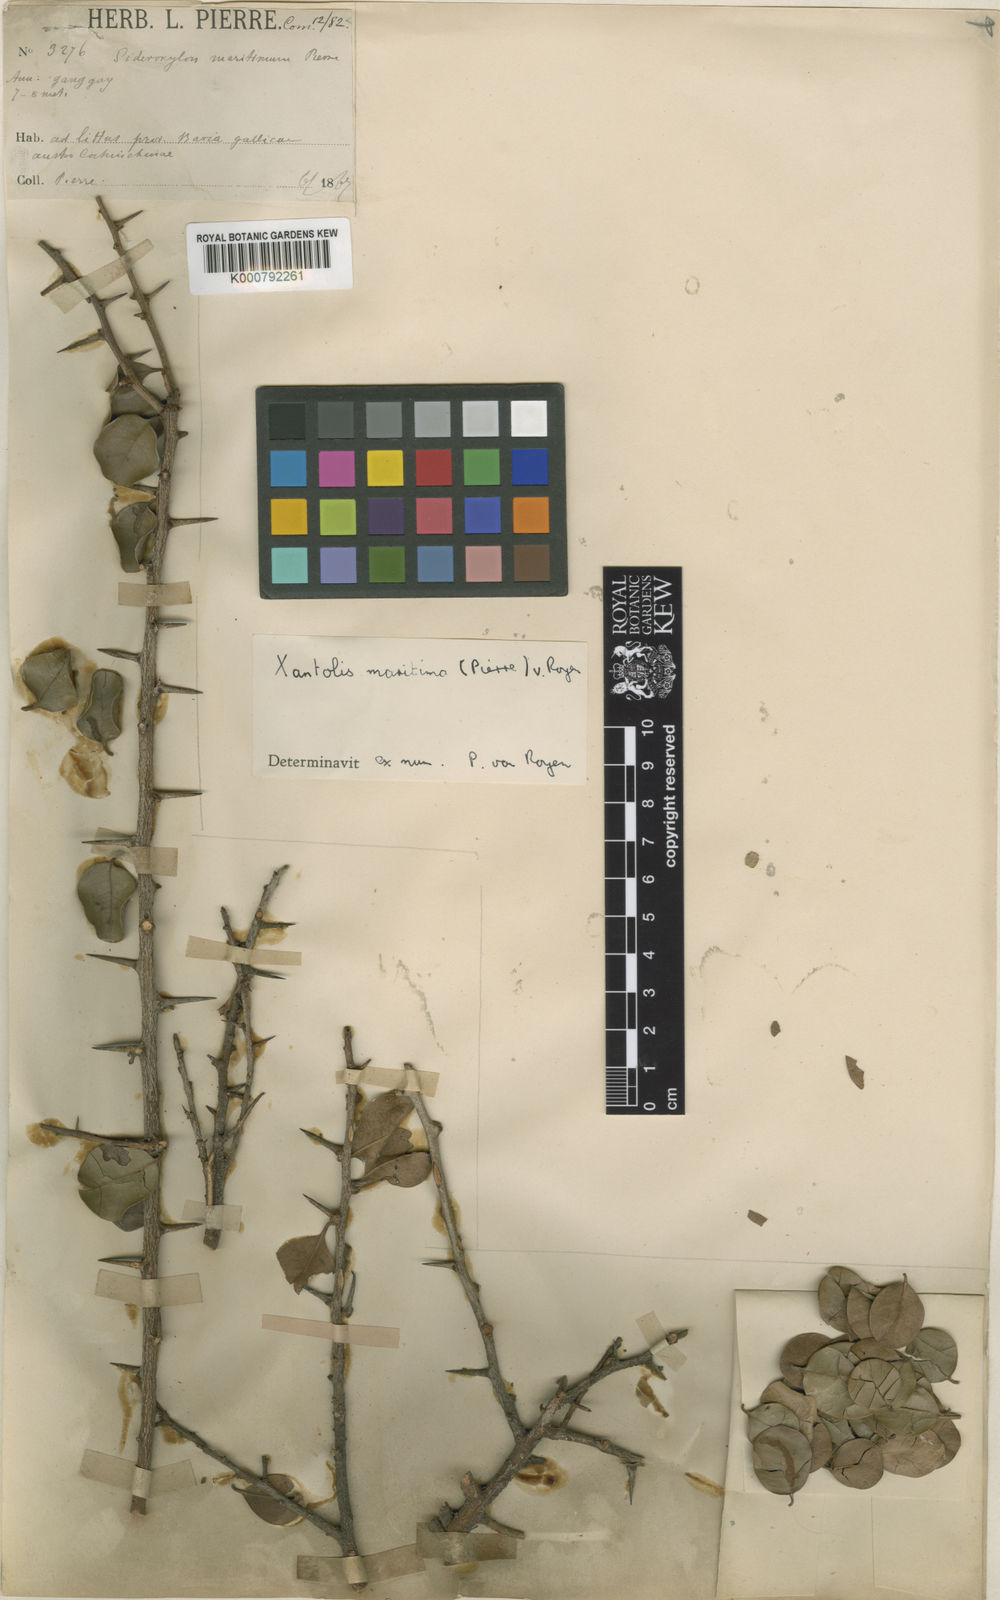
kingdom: Plantae
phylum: Tracheophyta
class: Magnoliopsida
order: Ericales
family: Sapotaceae
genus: Xantolis
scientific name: Xantolis maritima
